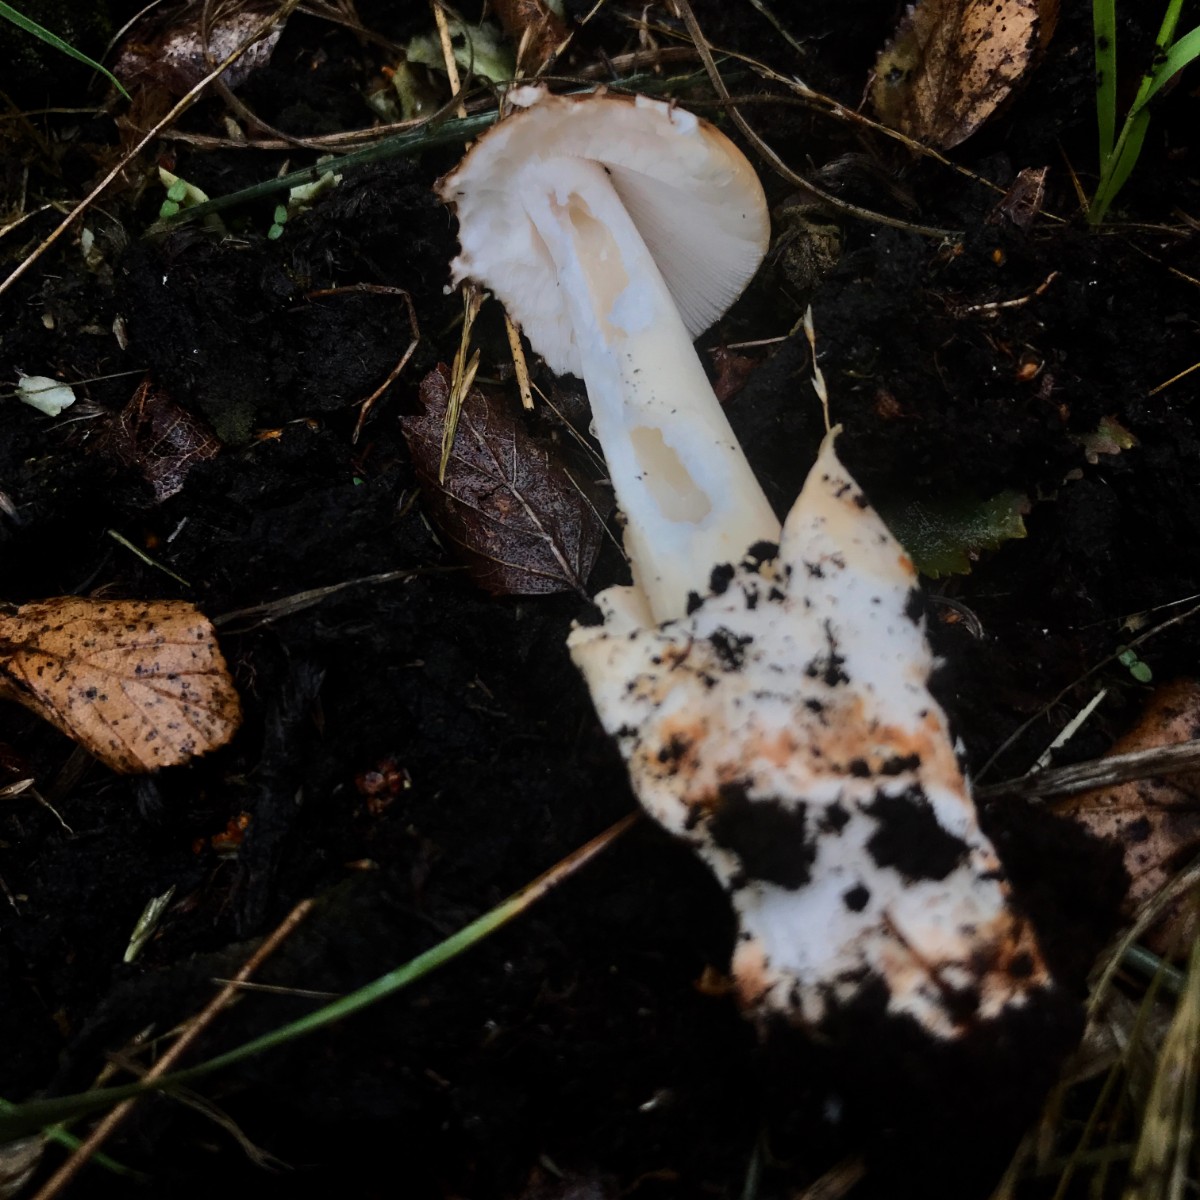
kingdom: Fungi
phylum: Basidiomycota
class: Agaricomycetes
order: Agaricales
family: Amanitaceae
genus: Amanita
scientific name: Amanita fulva
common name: brun kam-fluesvamp
